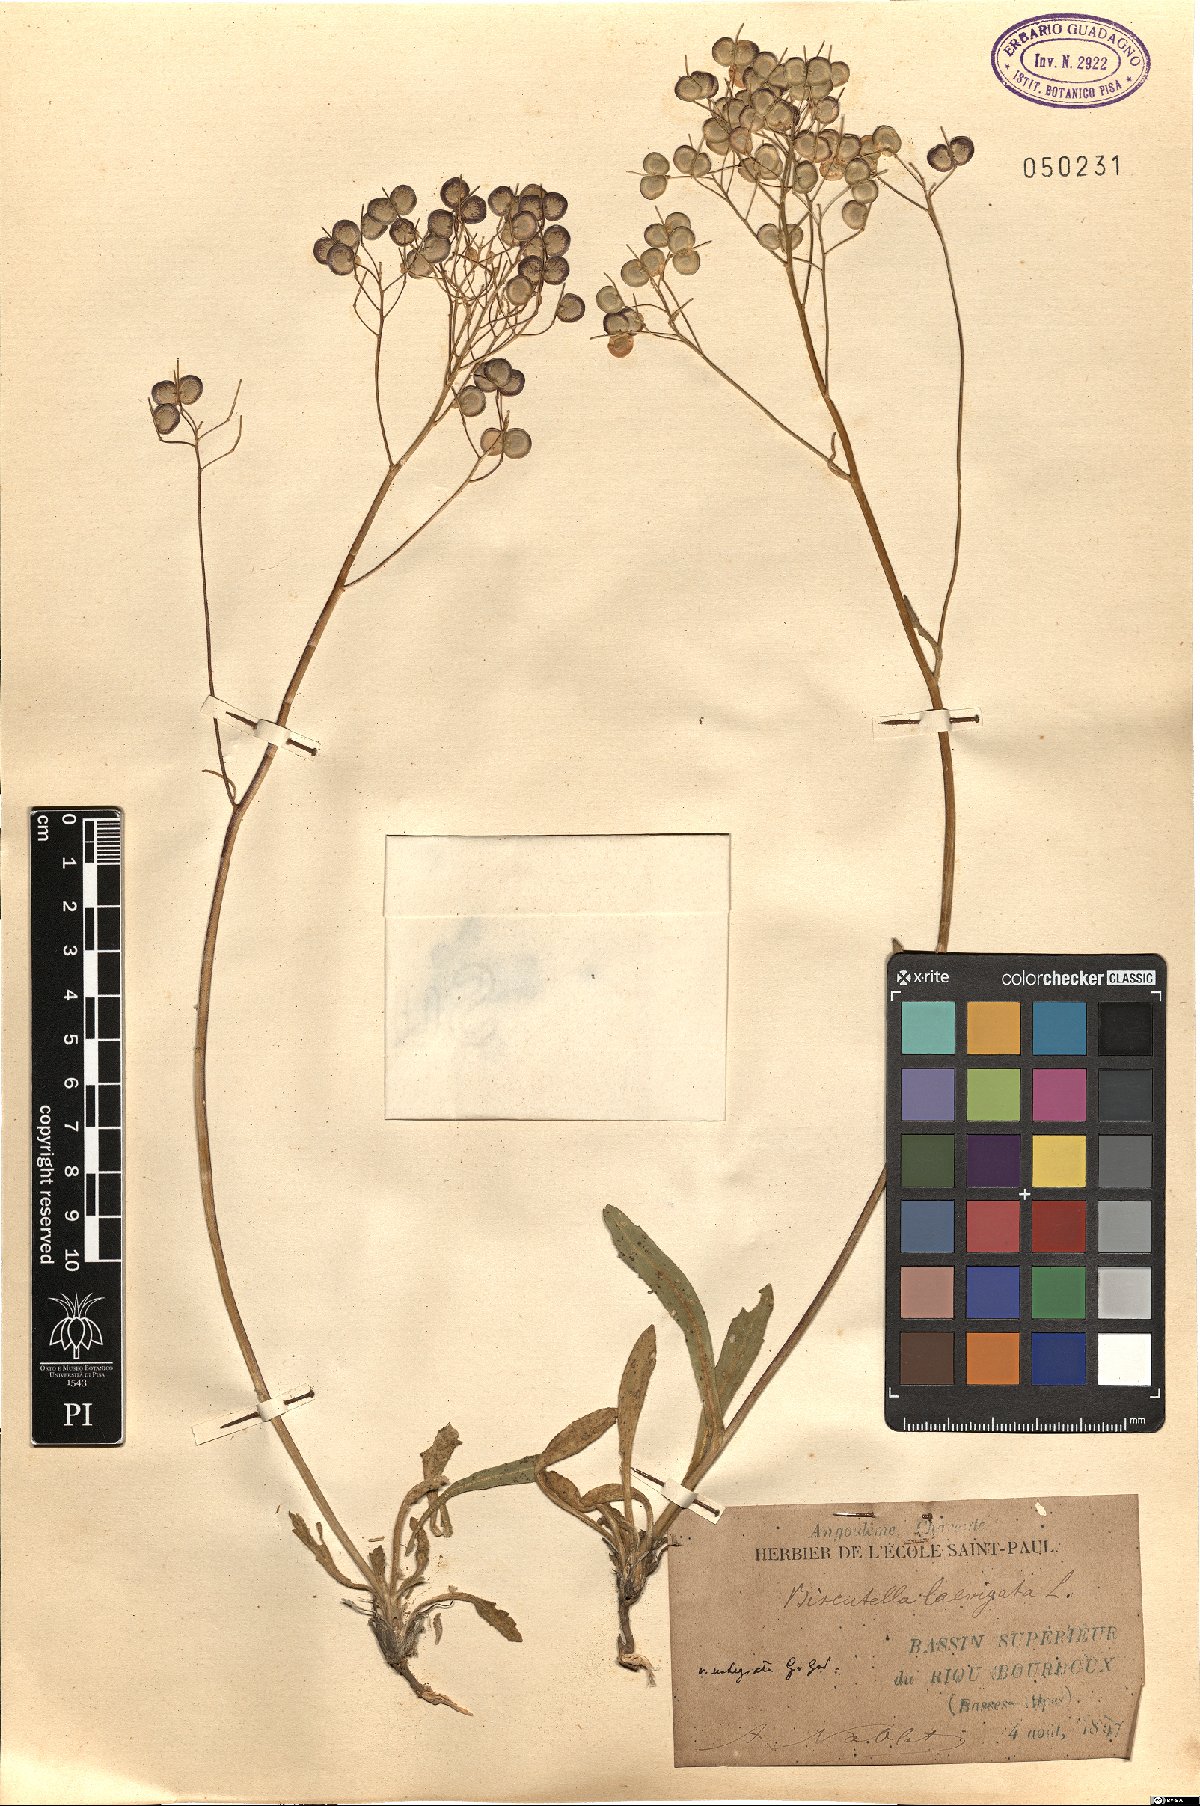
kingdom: Plantae
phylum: Tracheophyta
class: Magnoliopsida
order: Brassicales
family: Brassicaceae
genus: Biscutella
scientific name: Biscutella laevigata
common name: Buckler mustard
